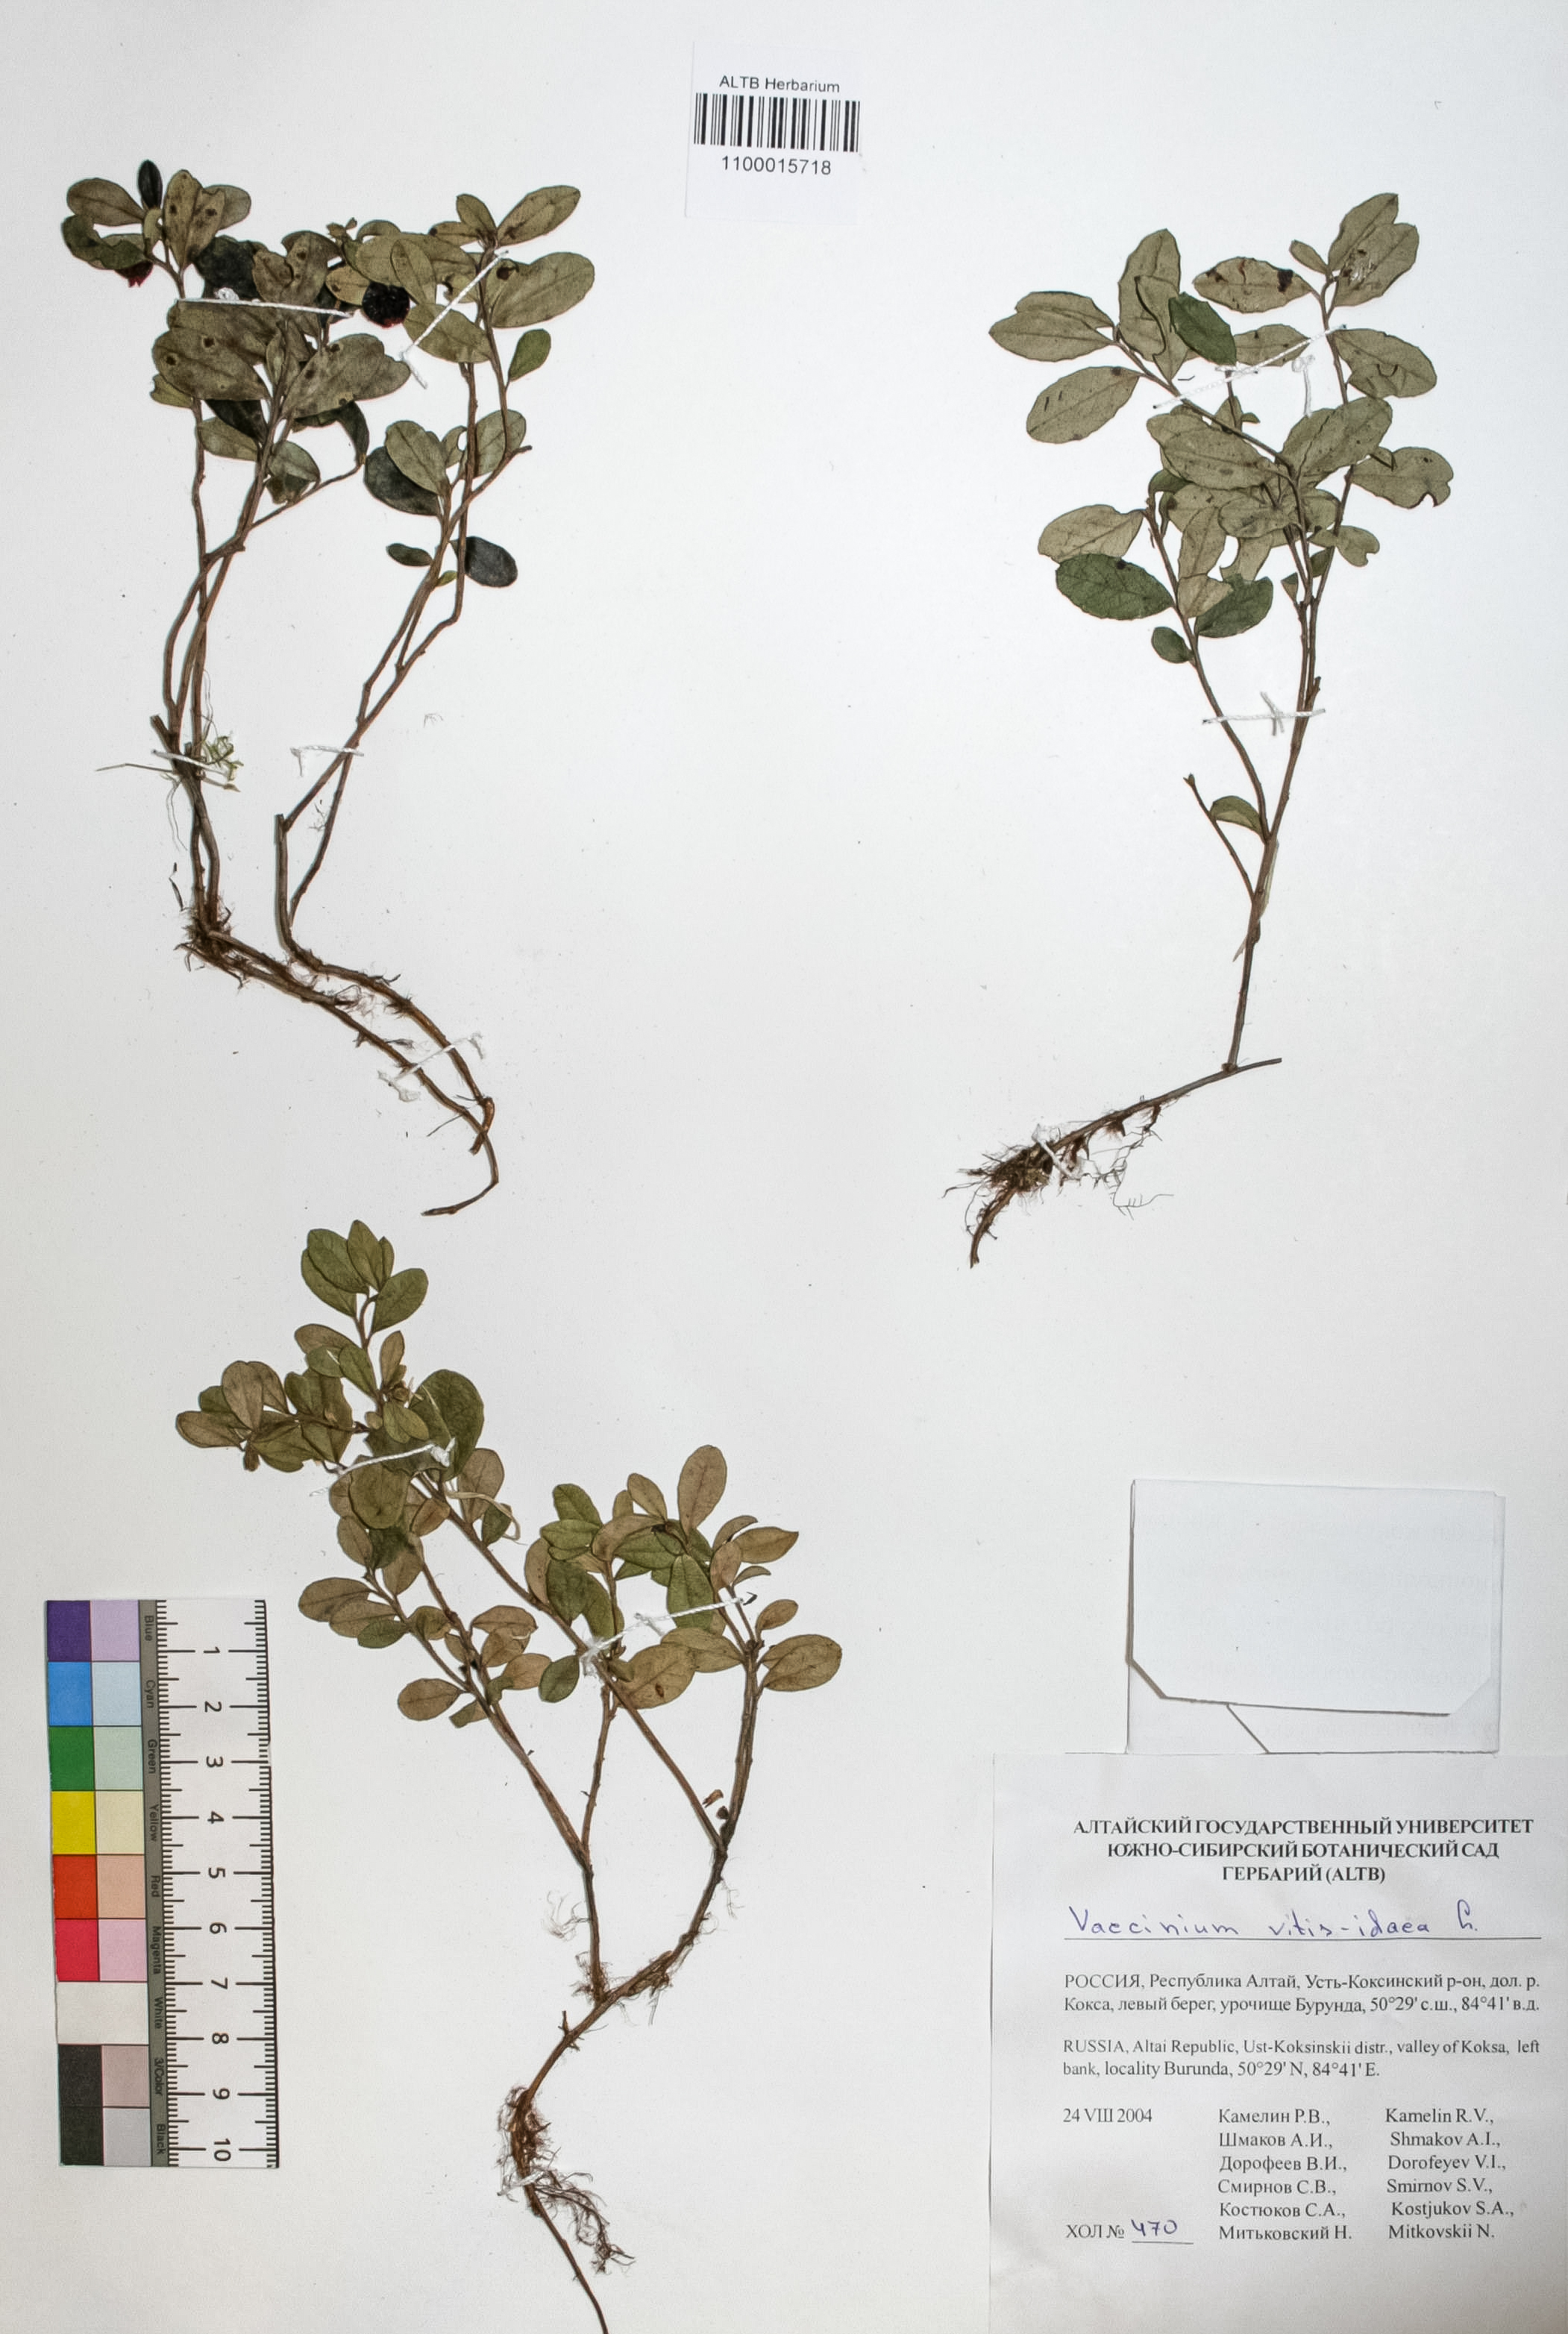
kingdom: Plantae
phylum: Tracheophyta
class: Magnoliopsida
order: Ericales
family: Ericaceae
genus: Vaccinium
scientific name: Vaccinium vitis-idaea
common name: Cowberry
